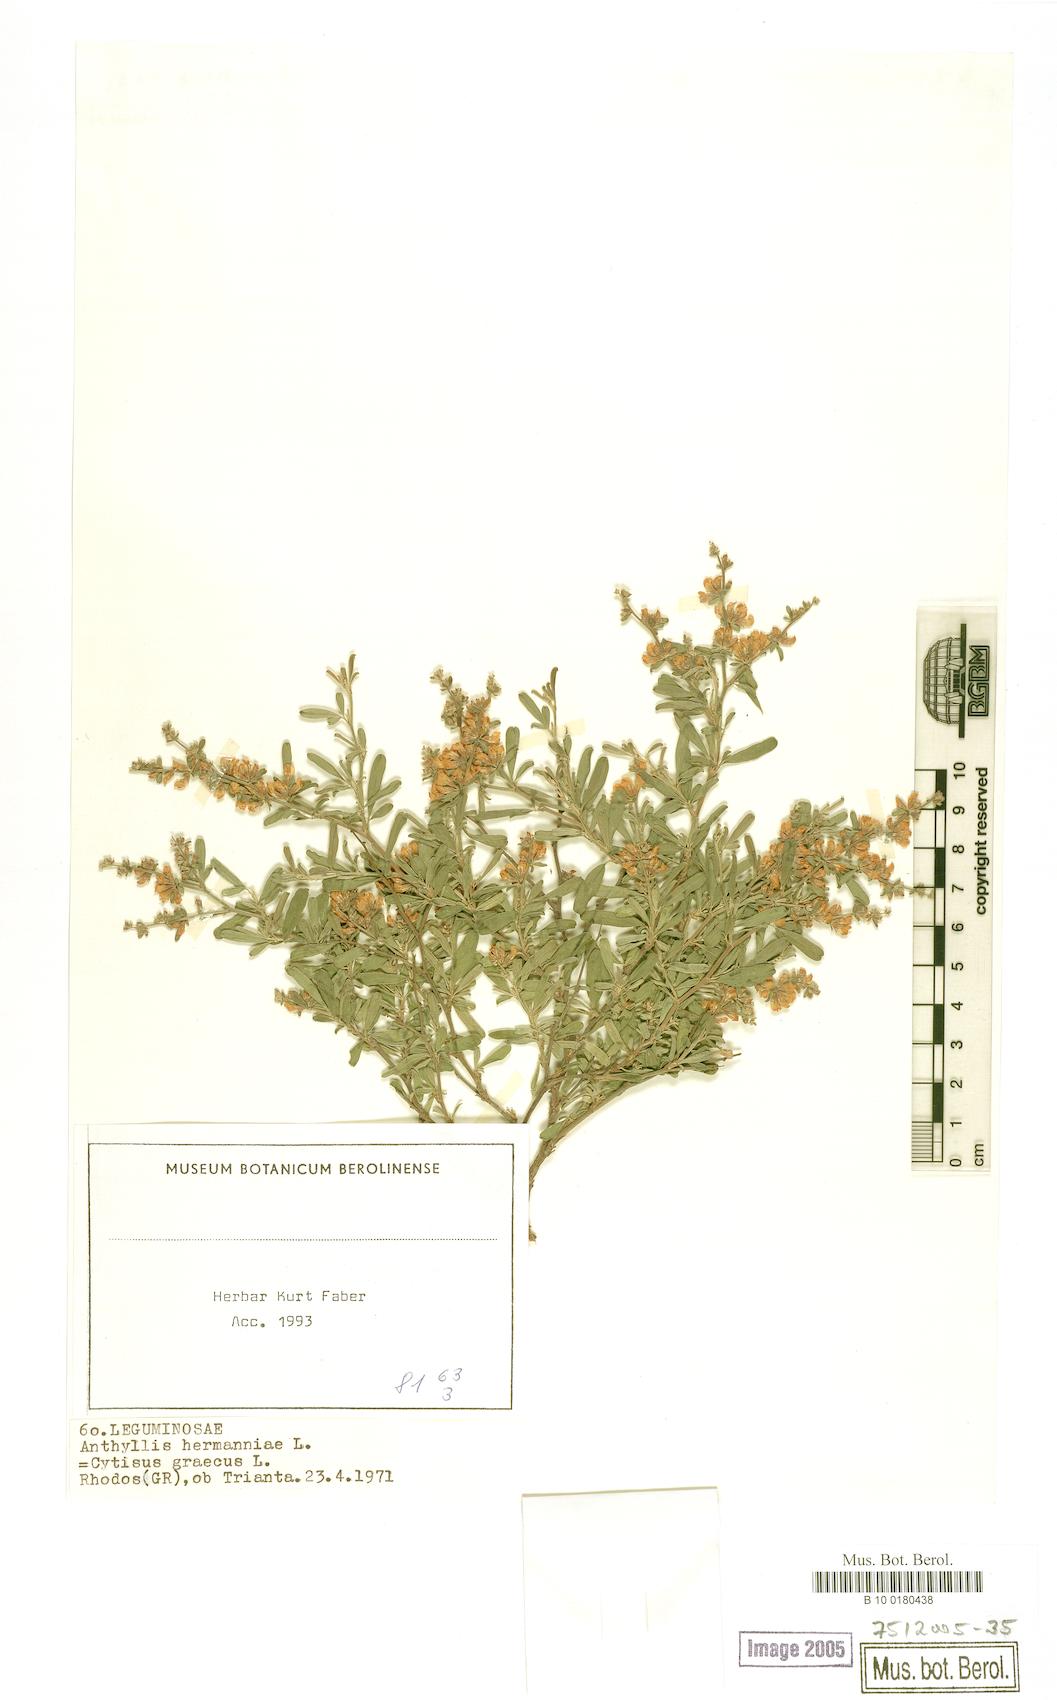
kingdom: Plantae
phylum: Tracheophyta
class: Magnoliopsida
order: Fabales
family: Fabaceae
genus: Anthyllis
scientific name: Anthyllis hermanniae
